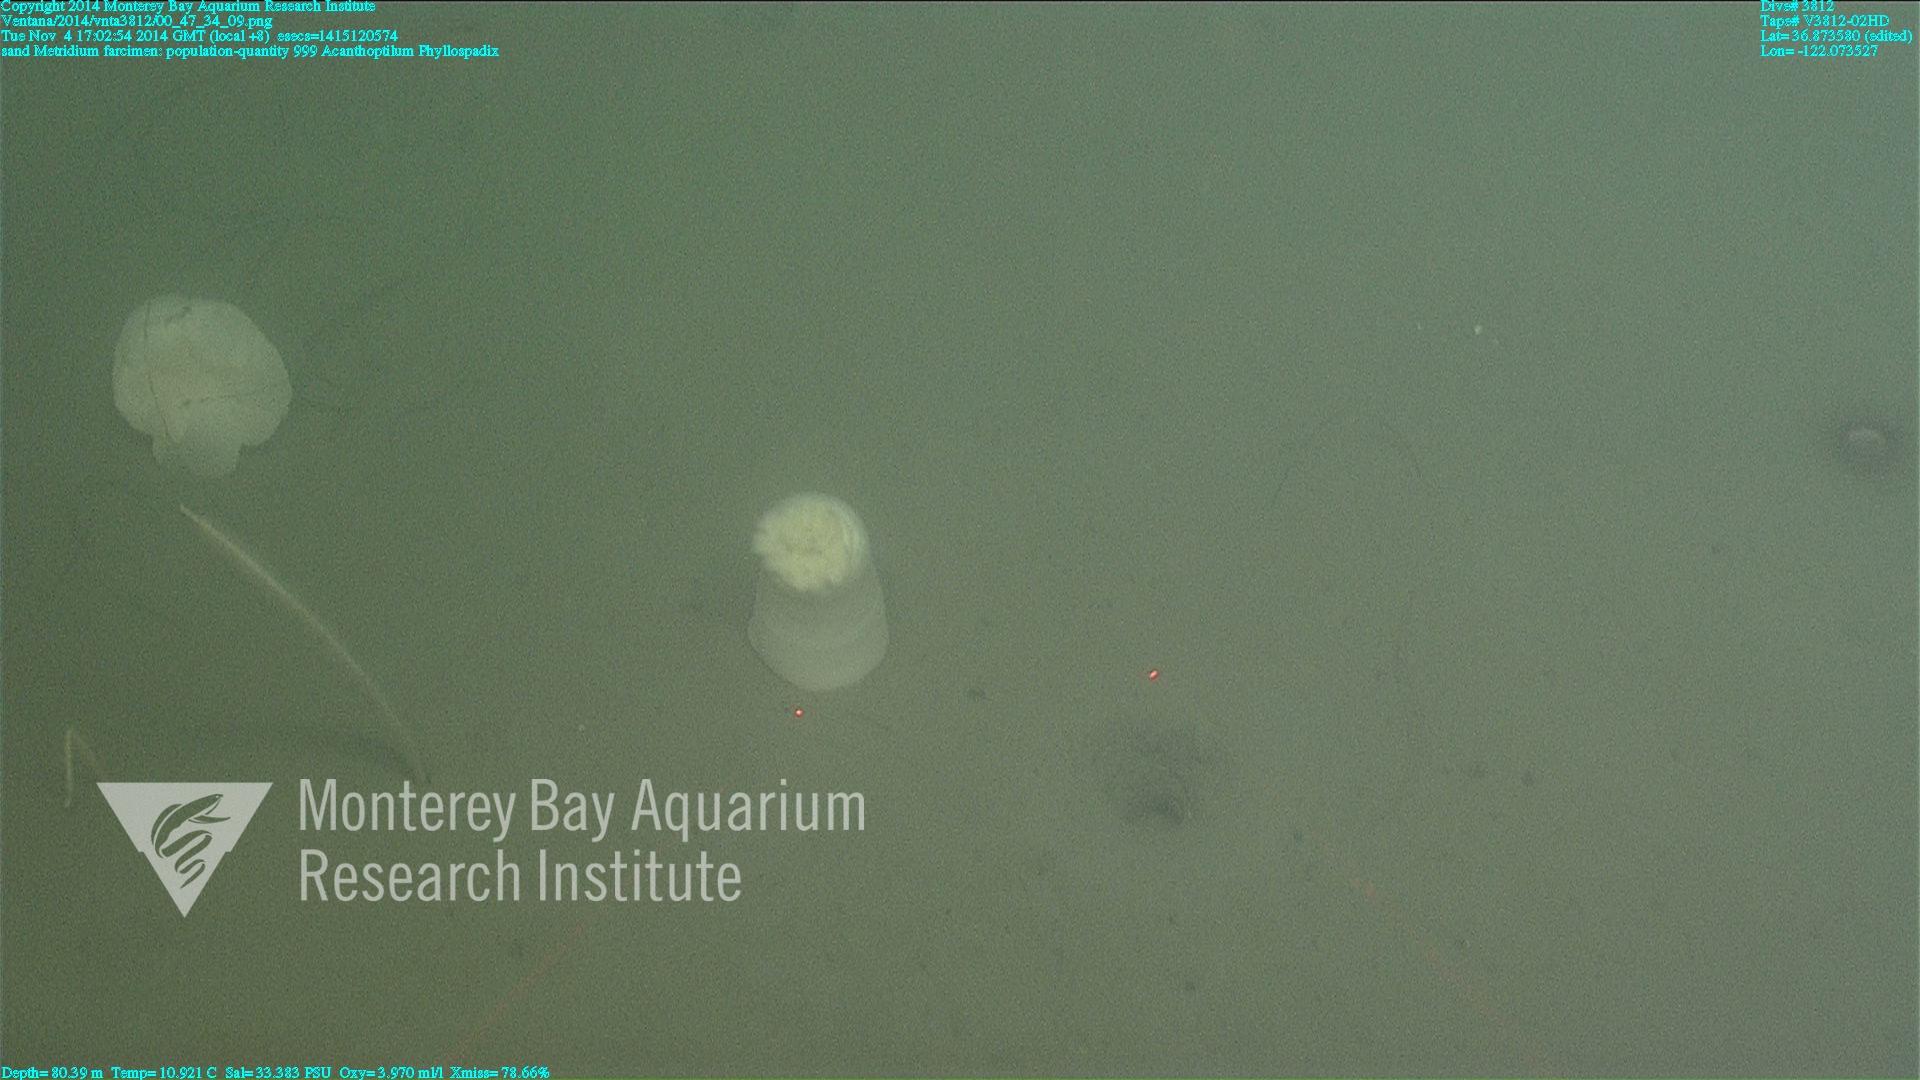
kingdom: Animalia
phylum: Cnidaria
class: Anthozoa
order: Scleralcyonacea
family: Virgulariidae
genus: Acanthoptilum
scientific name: Acanthoptilum
